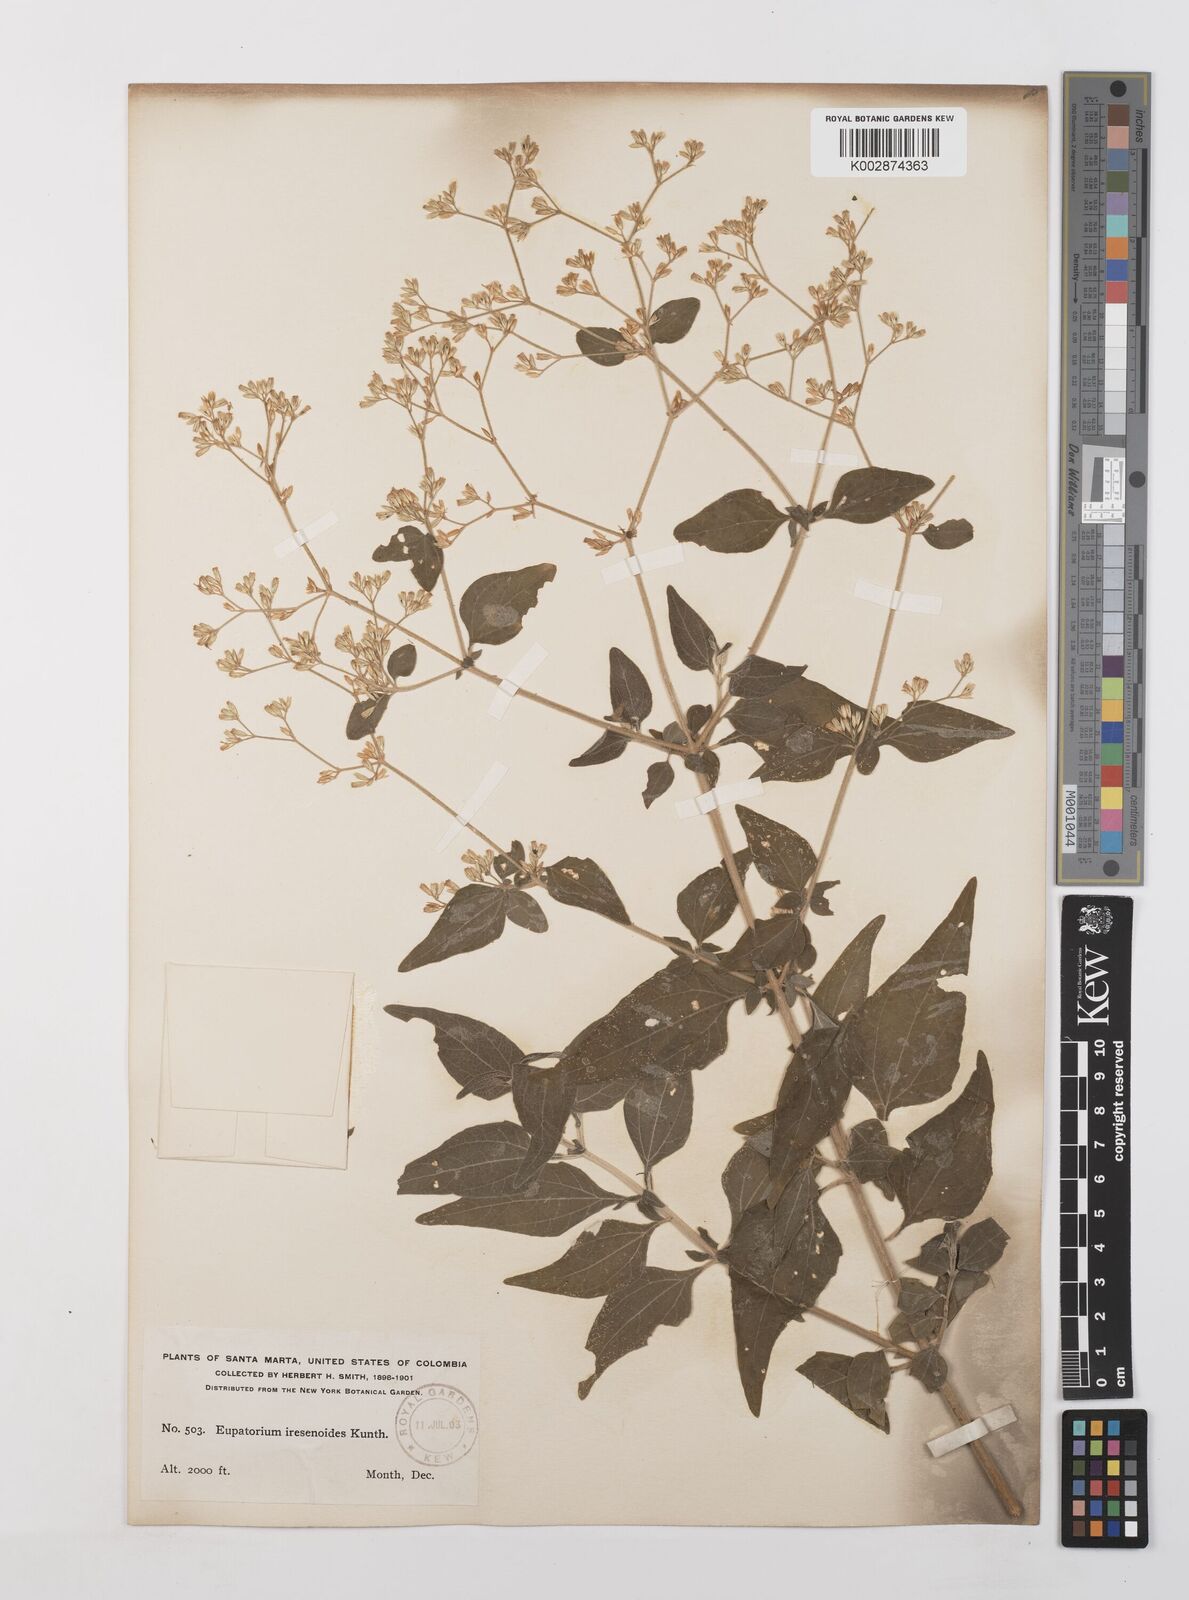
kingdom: Plantae
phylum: Tracheophyta
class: Magnoliopsida
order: Asterales
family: Asteraceae
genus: Condylidium
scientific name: Condylidium iresinoides
